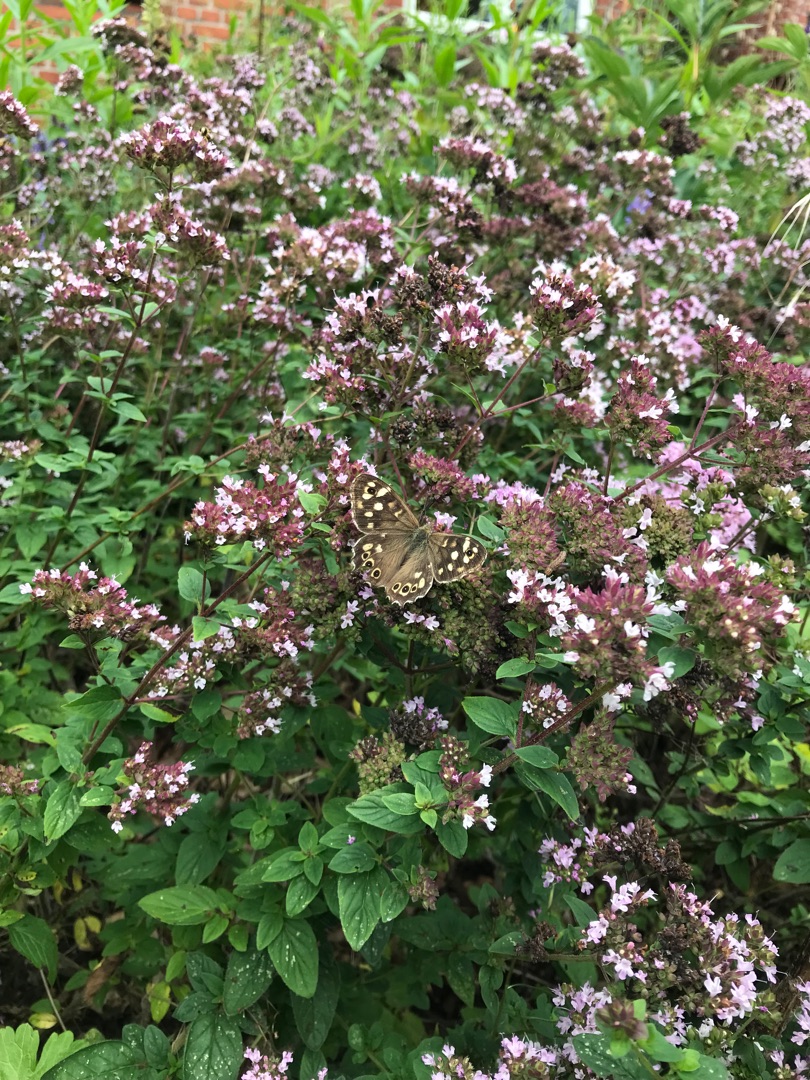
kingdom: Animalia
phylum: Arthropoda
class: Insecta
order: Lepidoptera
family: Nymphalidae
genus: Pararge
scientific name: Pararge aegeria
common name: Skovrandøje
